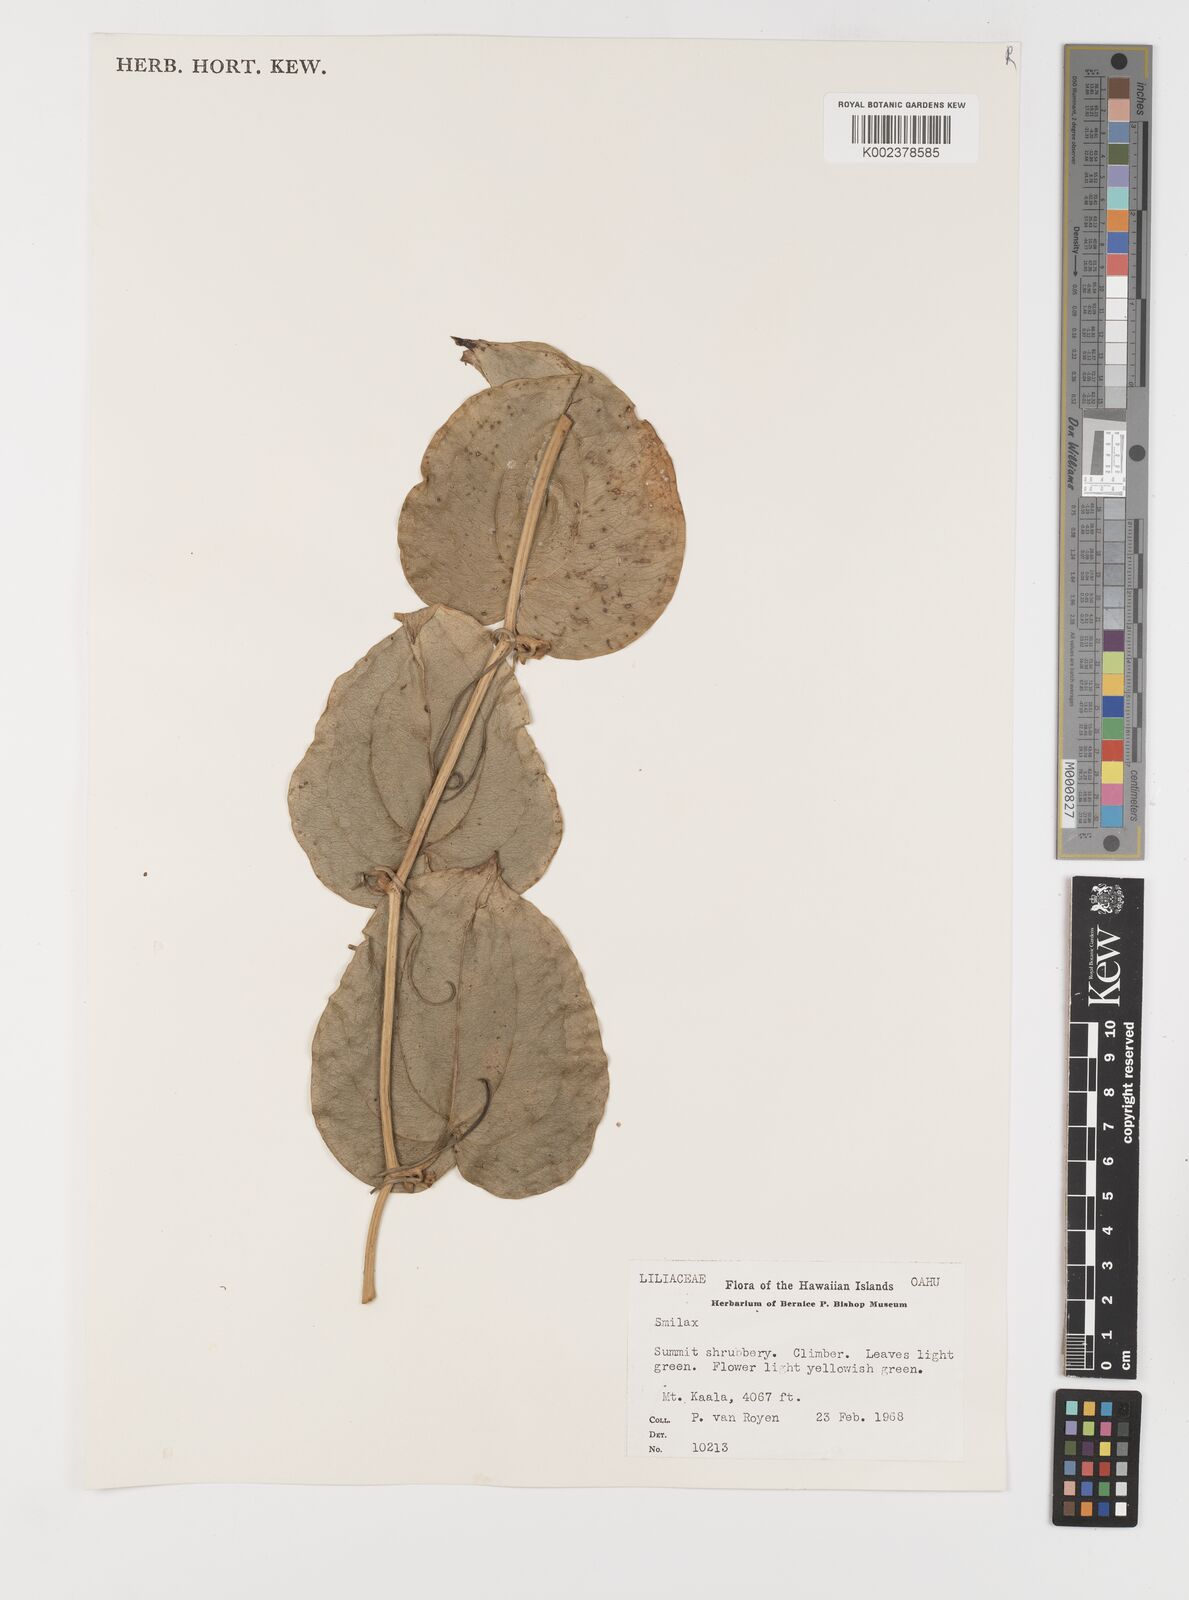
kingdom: Plantae
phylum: Tracheophyta
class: Liliopsida
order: Liliales
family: Smilacaceae
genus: Smilax
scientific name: Smilax
